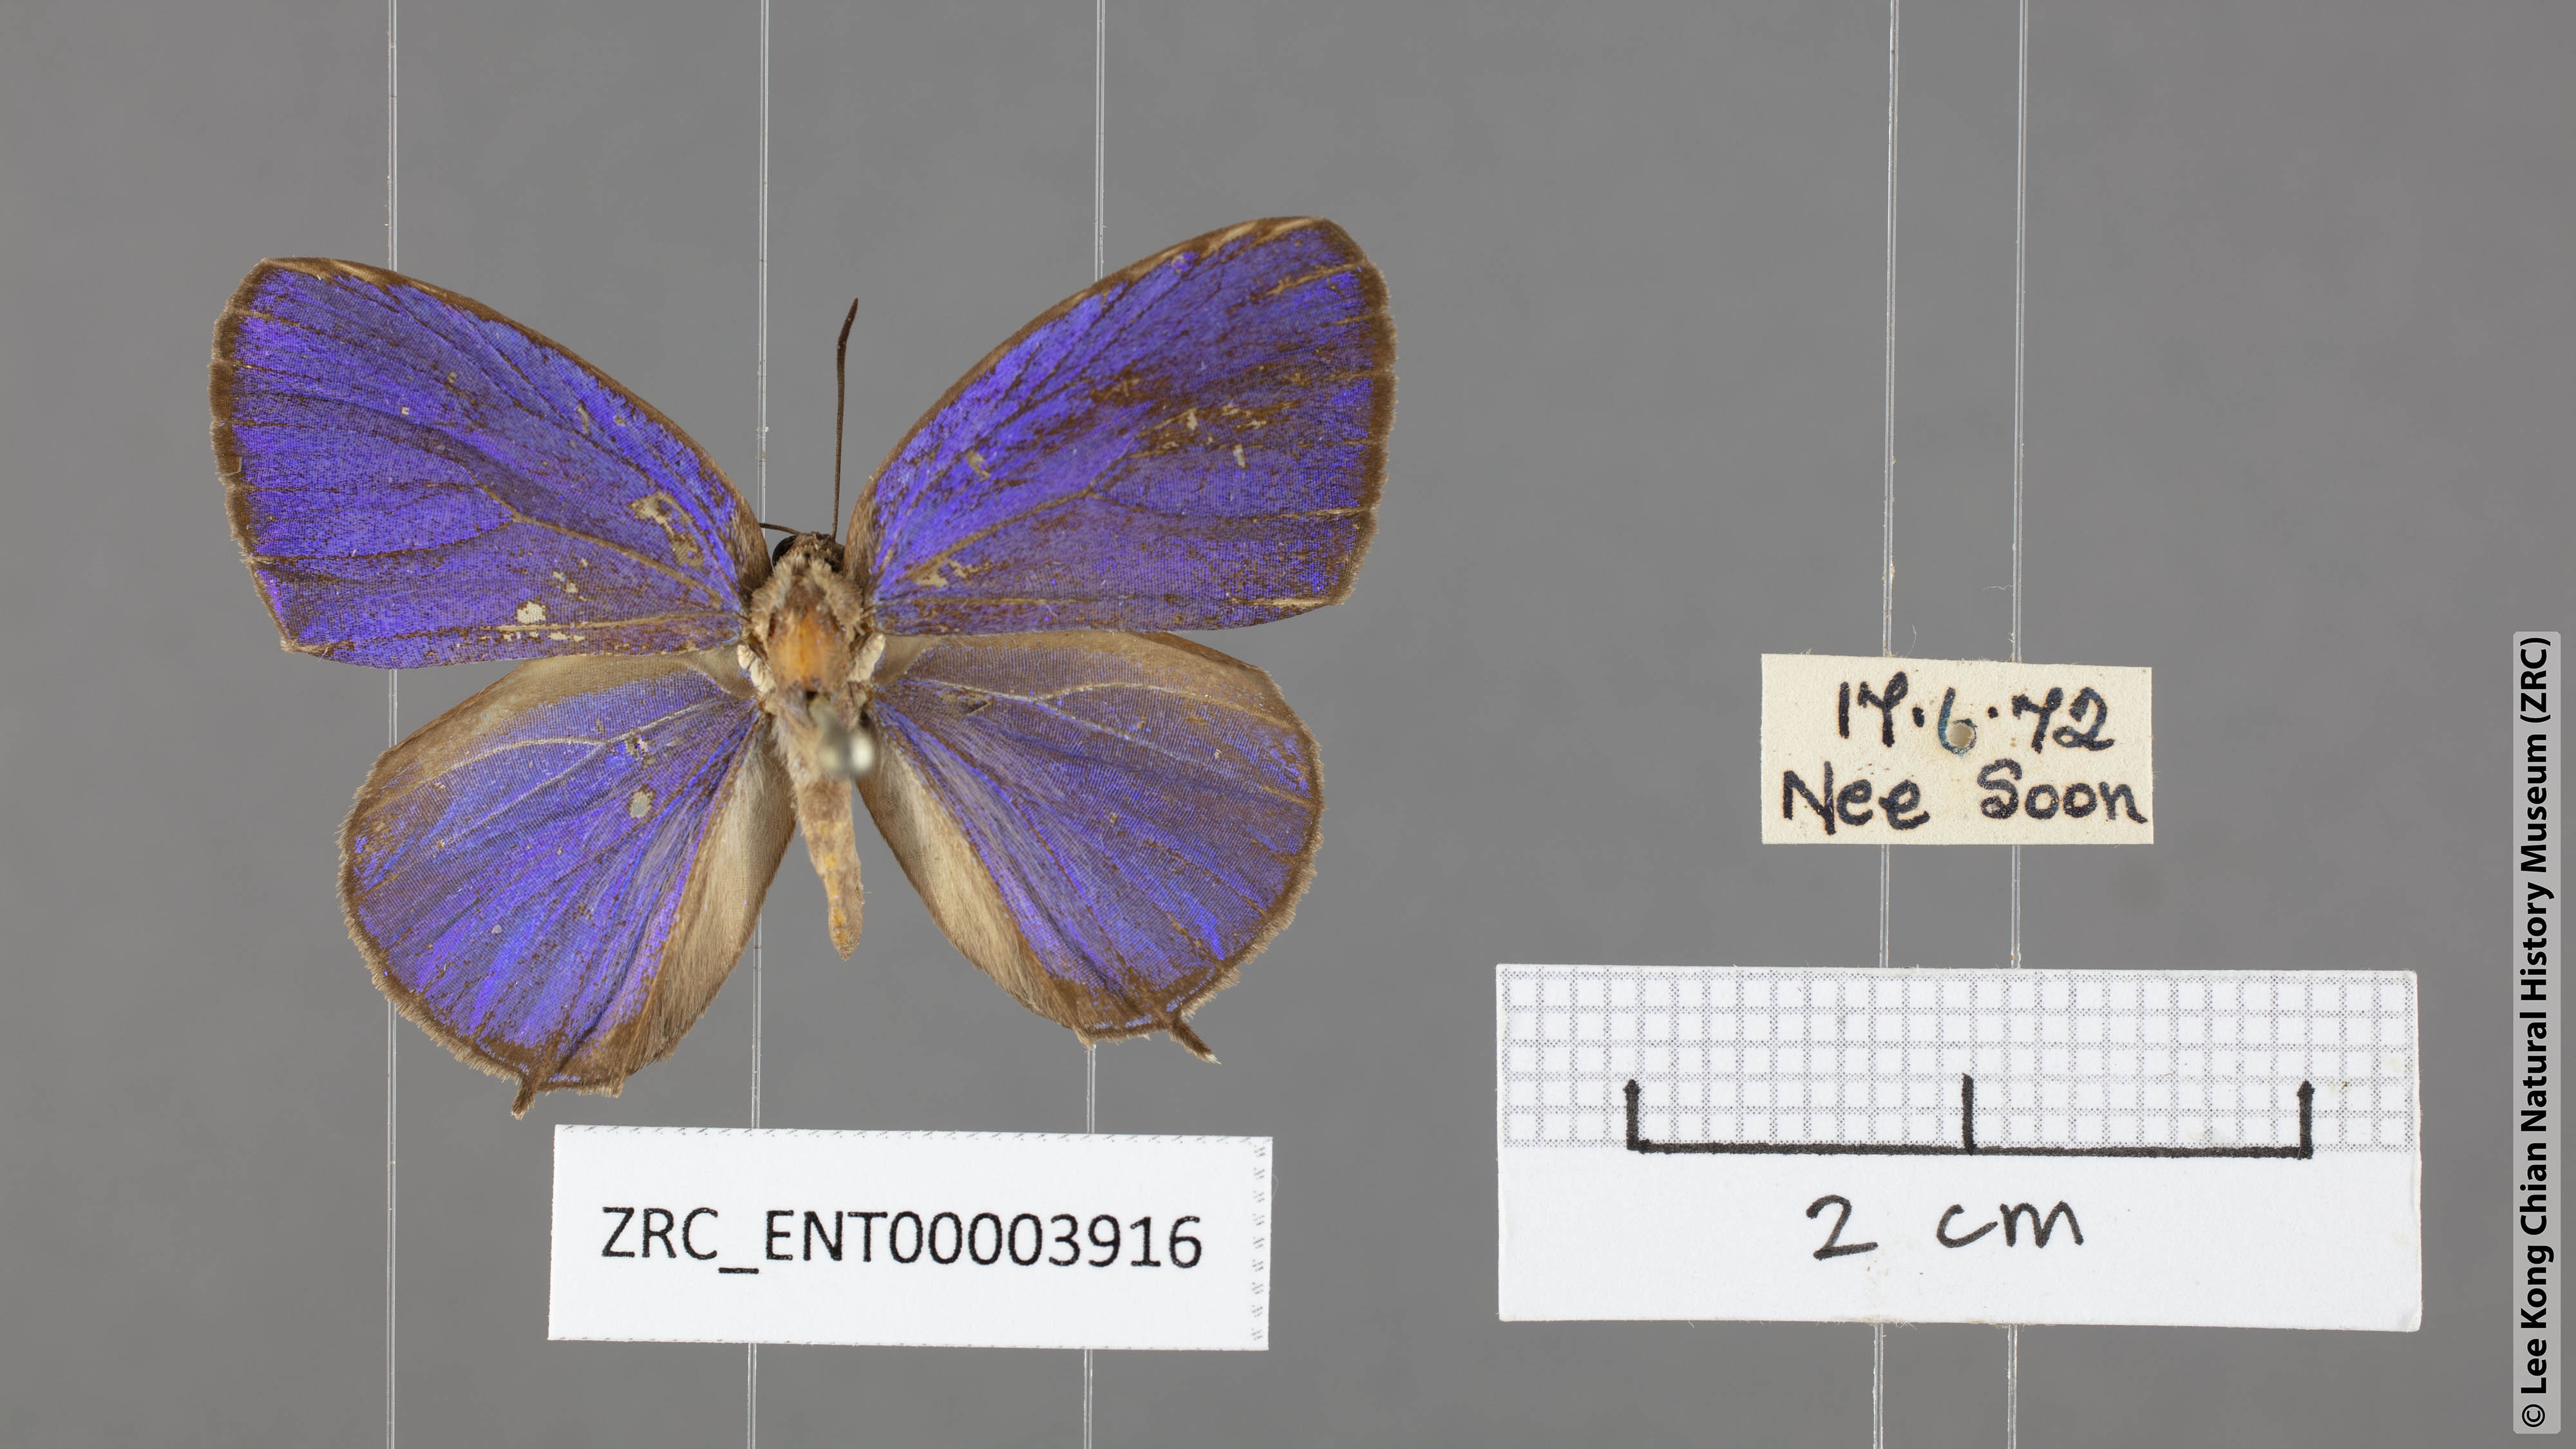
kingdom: Animalia
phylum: Arthropoda
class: Insecta
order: Lepidoptera
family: Lycaenidae
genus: Arhopala
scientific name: Arhopala democritus
